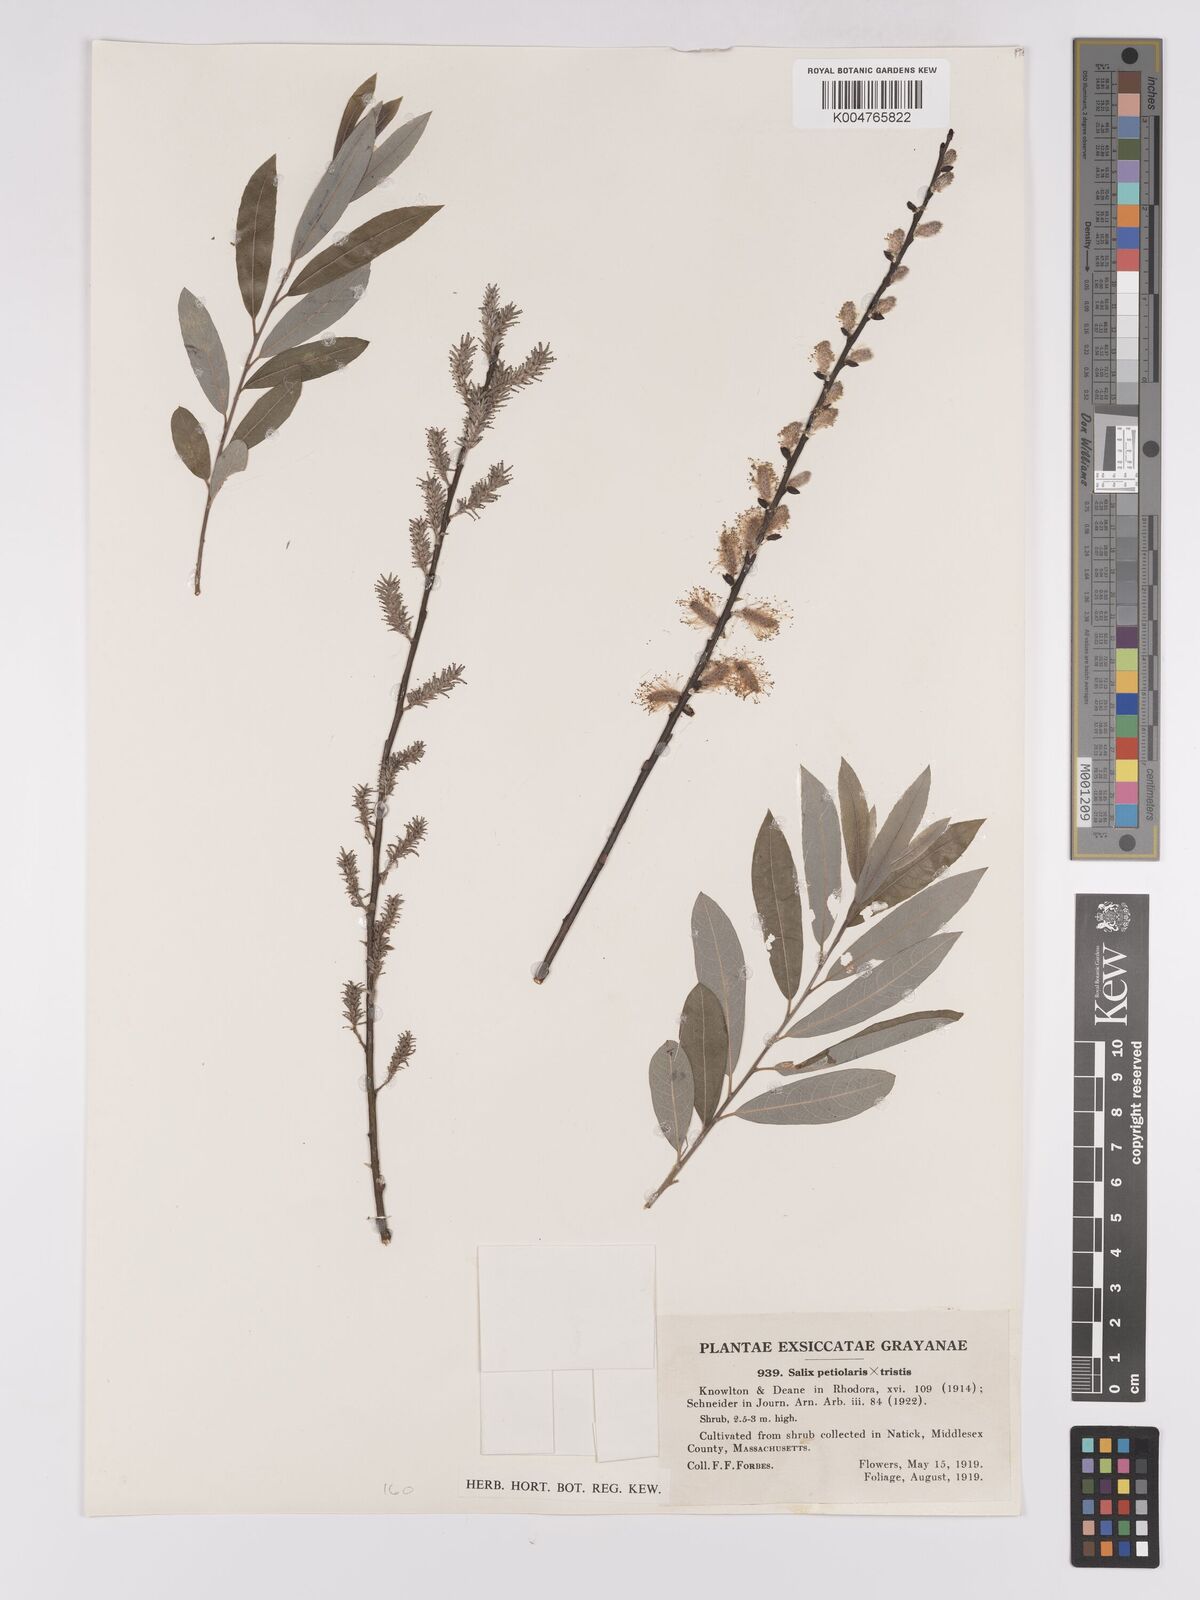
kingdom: Plantae
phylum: Tracheophyta
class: Magnoliopsida
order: Malpighiales
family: Salicaceae
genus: Salix
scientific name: Salix petiolaris
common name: Slender willow
